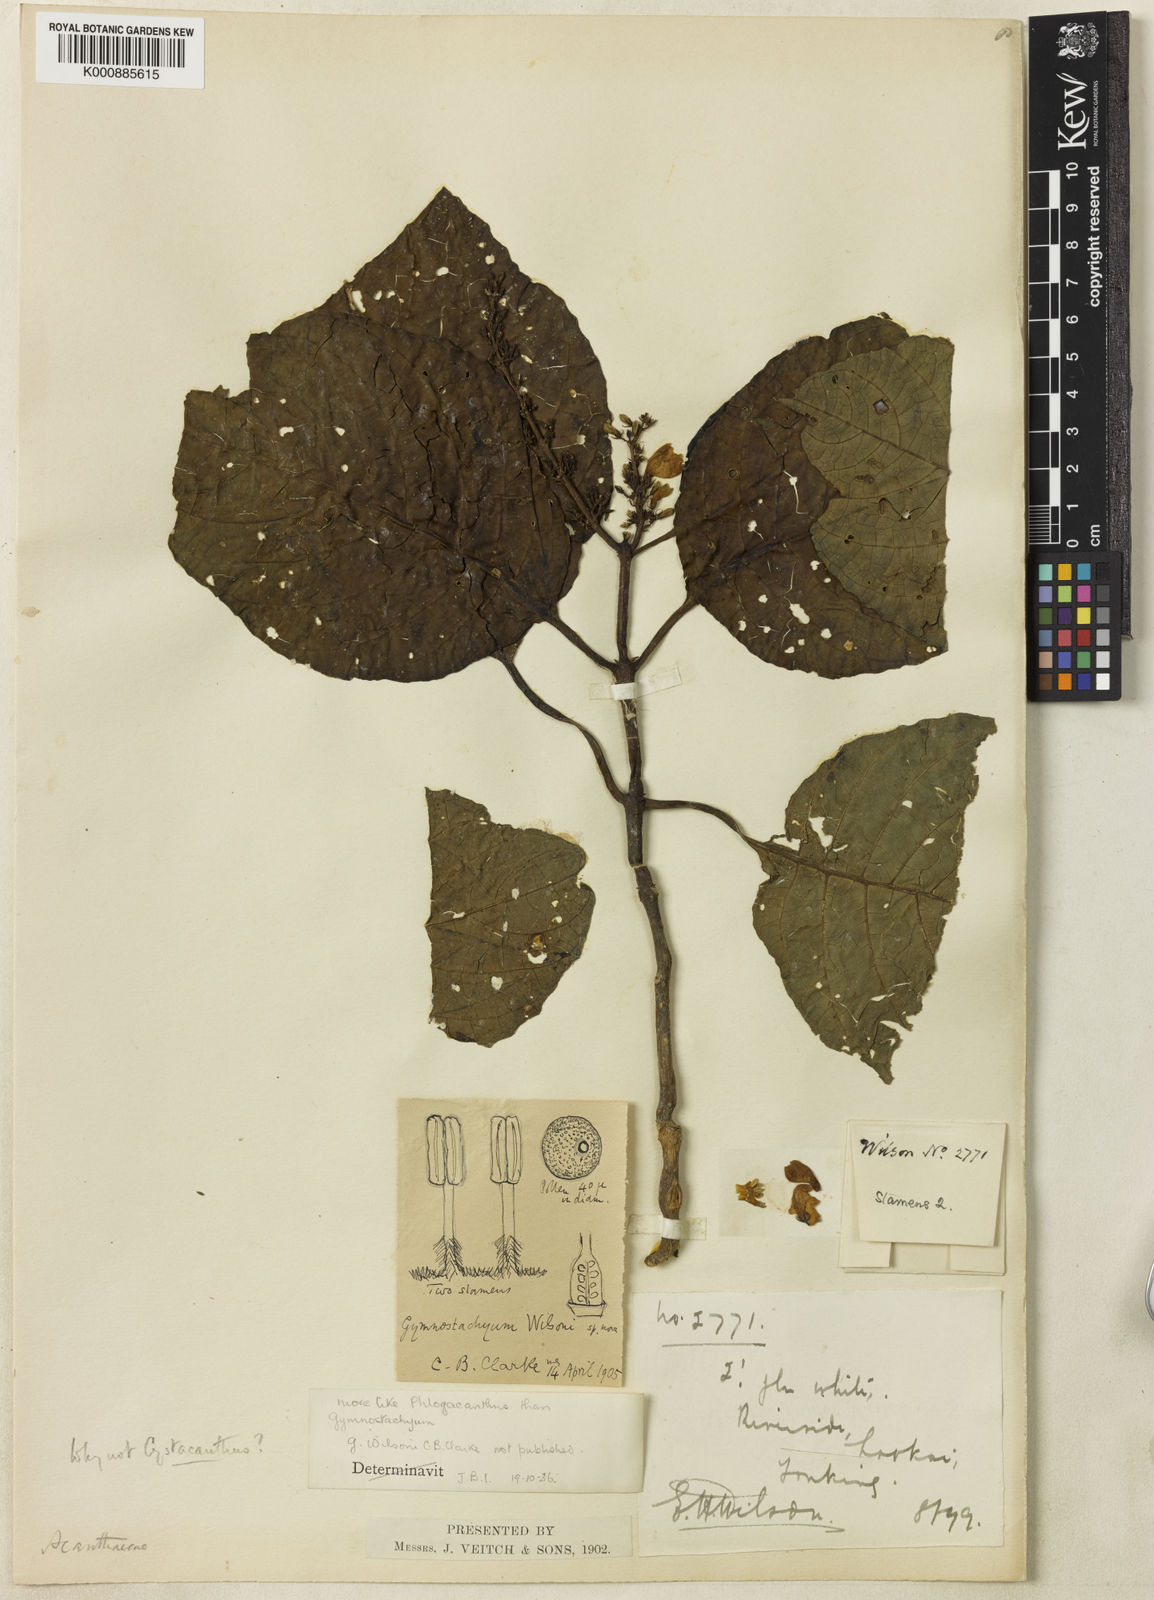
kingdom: Plantae
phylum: Tracheophyta
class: Magnoliopsida
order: Lamiales
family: Acanthaceae
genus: Phlogacanthus
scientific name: Phlogacanthus
